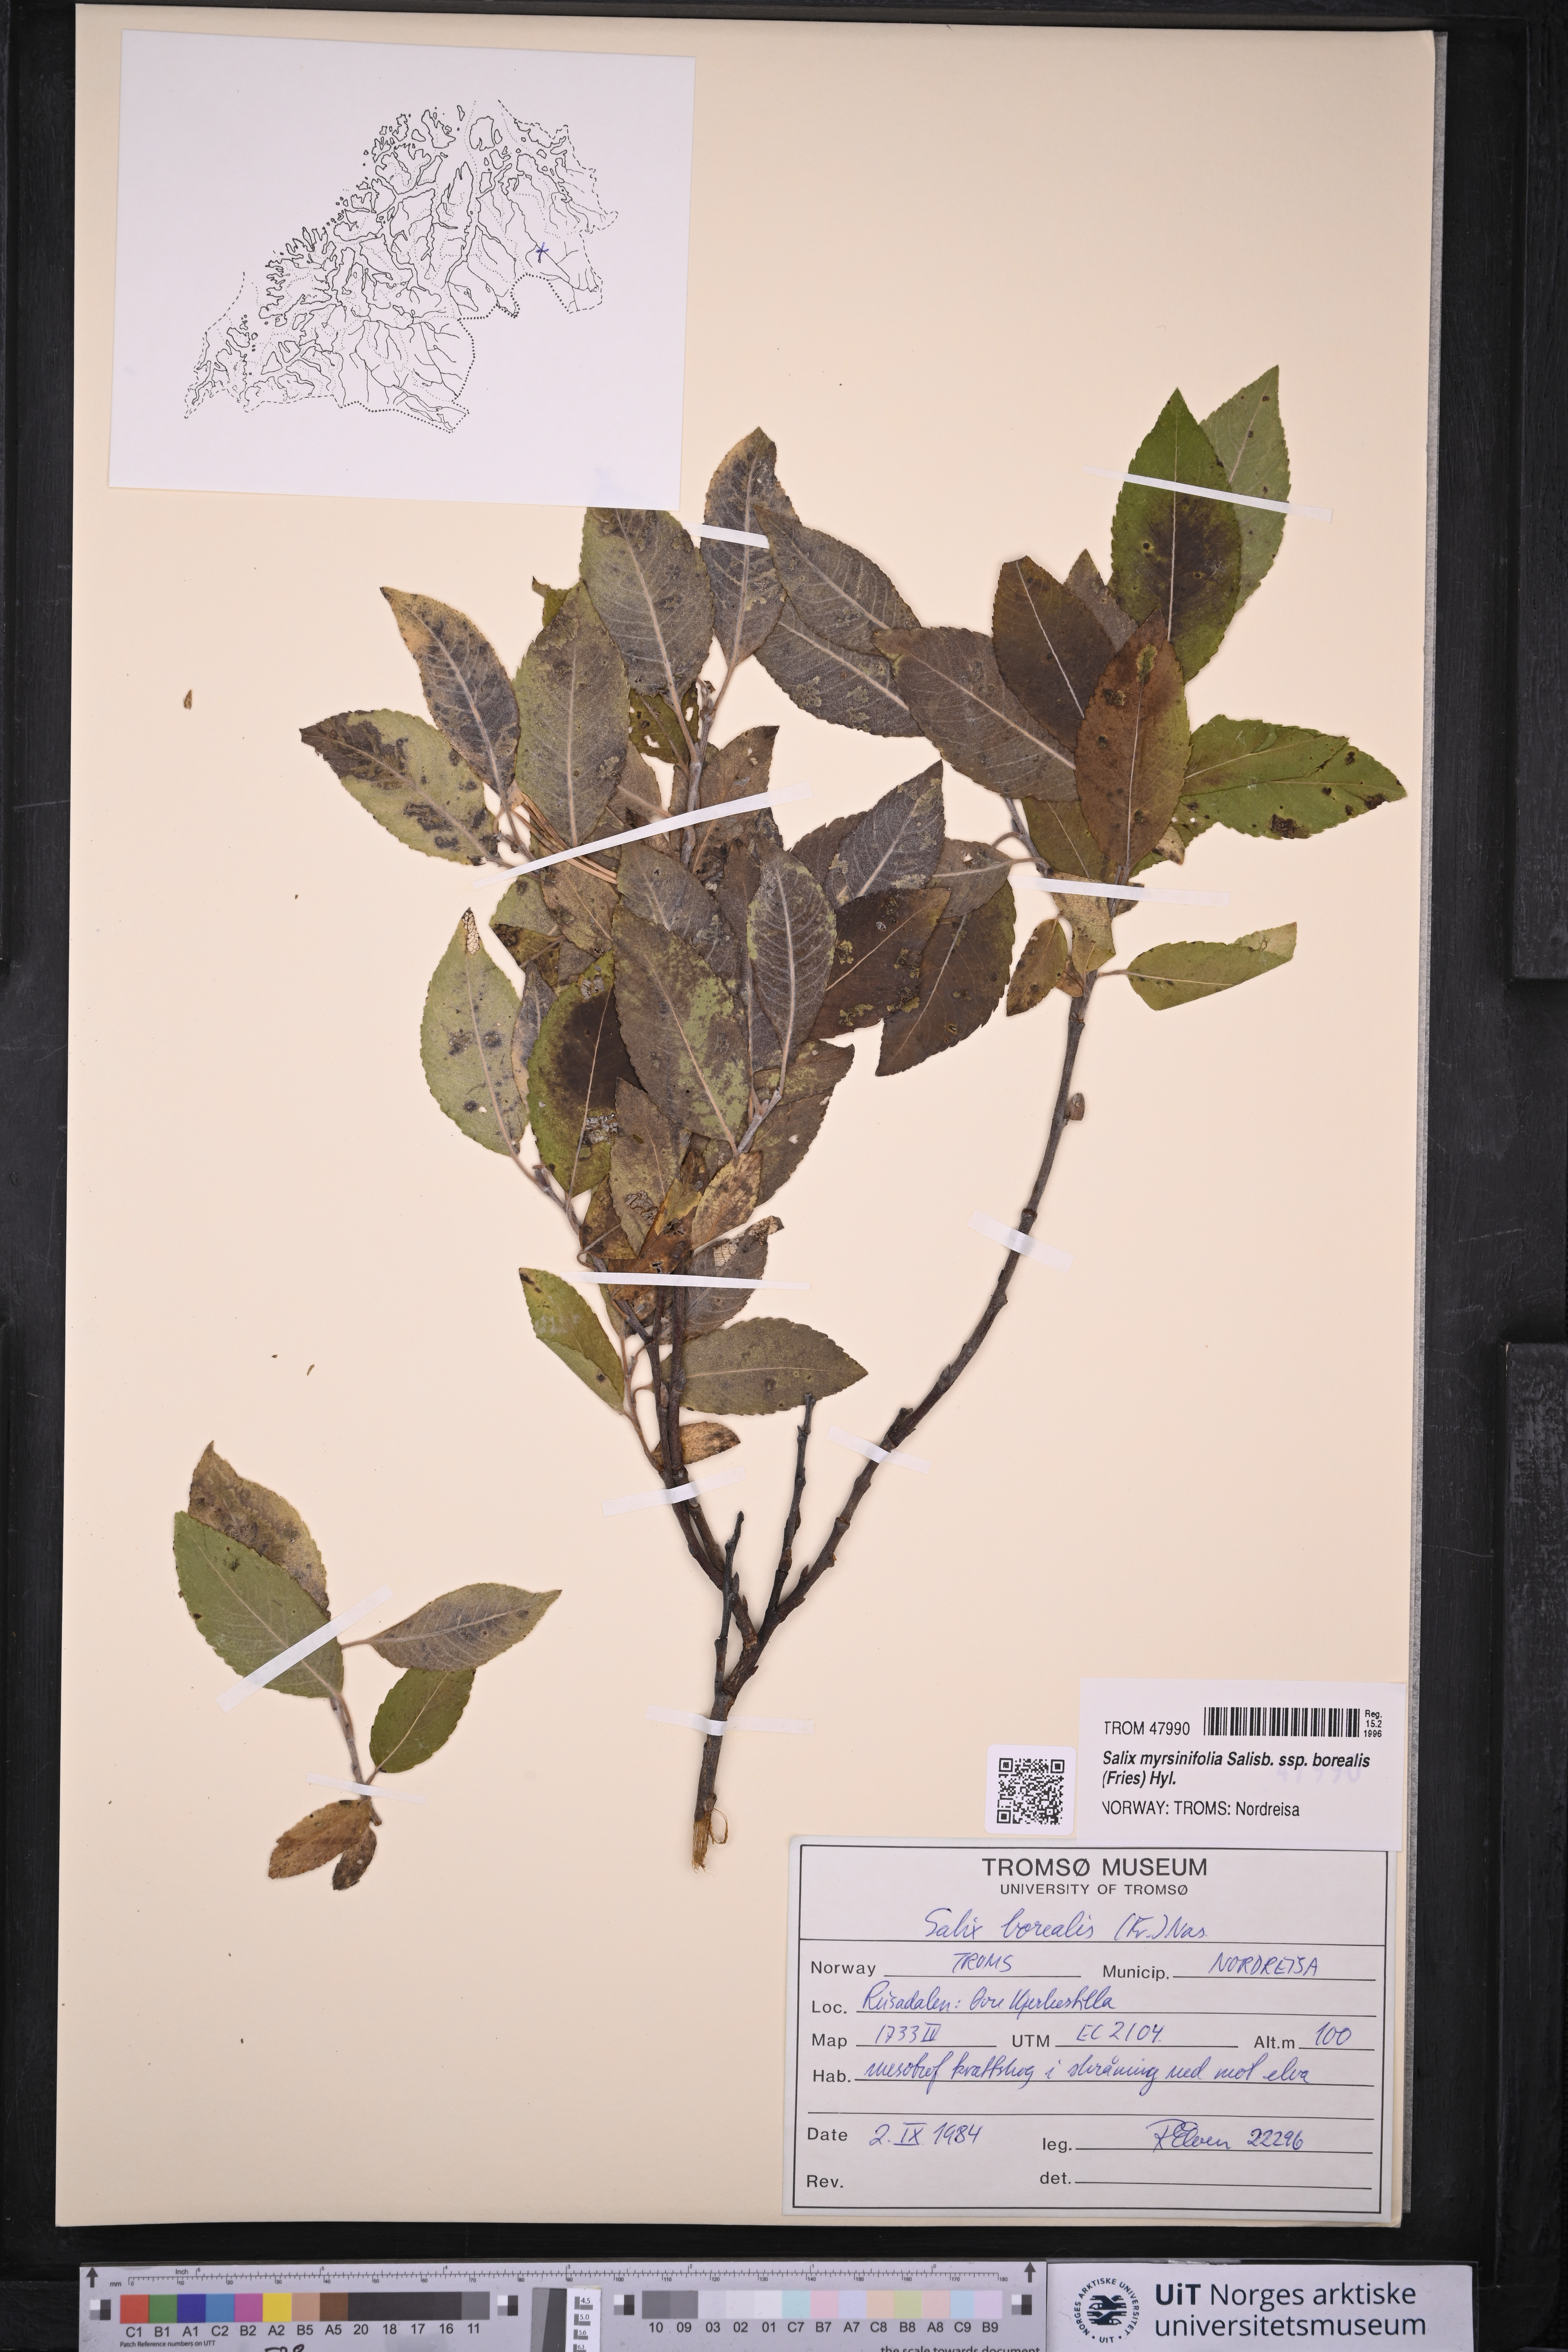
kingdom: Plantae
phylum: Tracheophyta
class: Magnoliopsida
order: Malpighiales
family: Salicaceae
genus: Salix
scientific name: Salix myrsinifolia
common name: Dark-leaved willow
